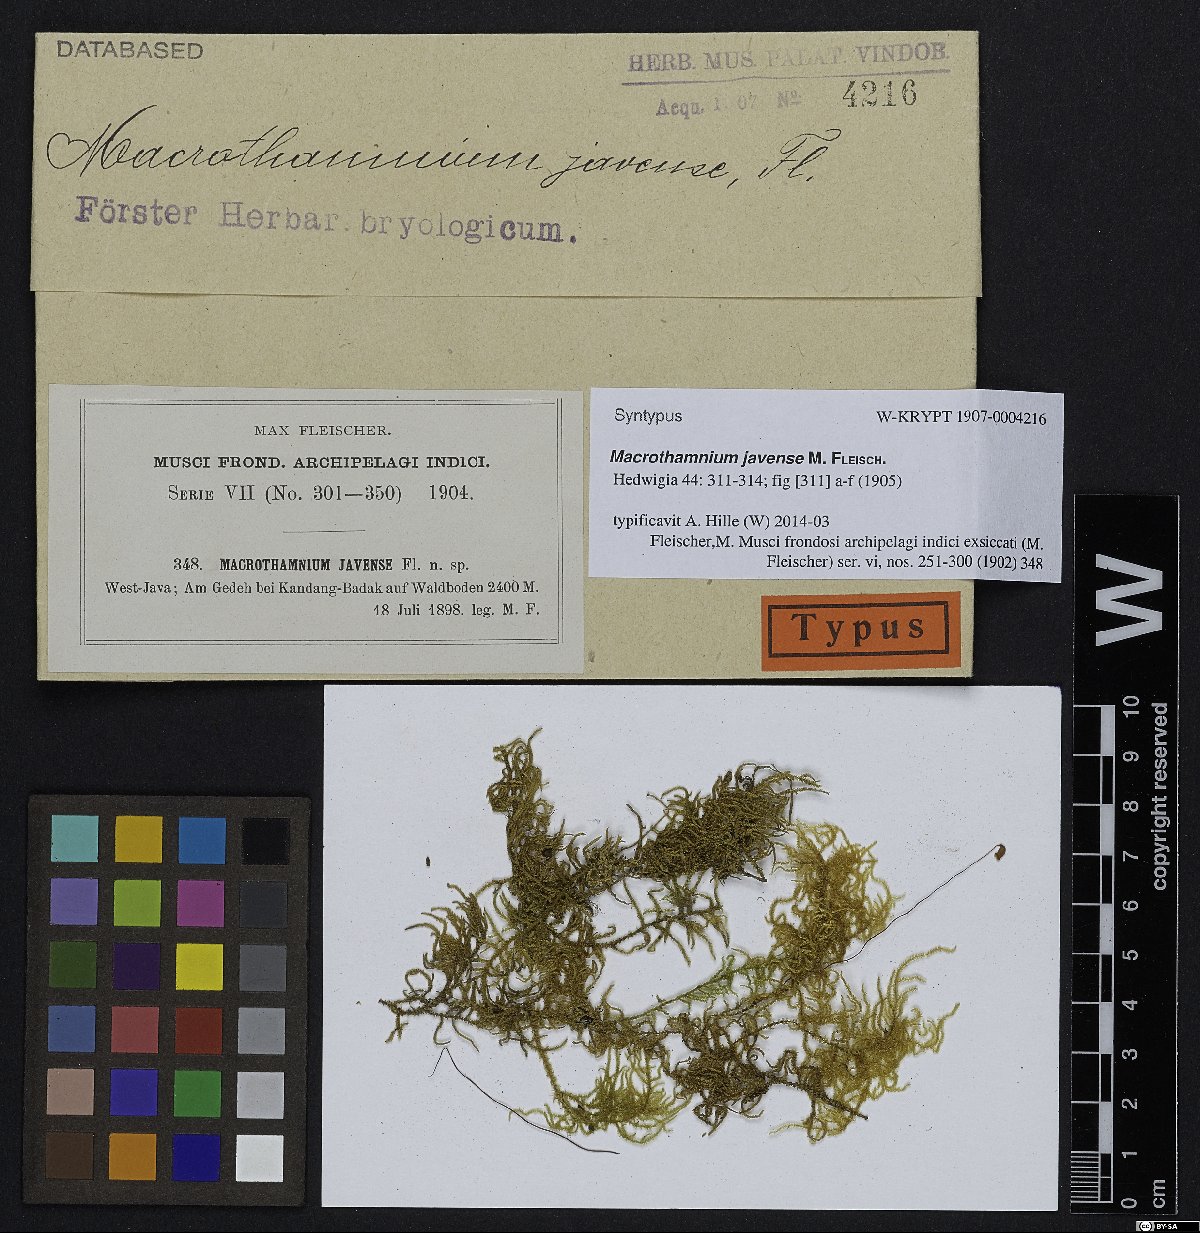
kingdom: Plantae
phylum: Bryophyta
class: Bryopsida
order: Hypnales
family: Hylocomiaceae
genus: Macrothamnium
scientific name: Macrothamnium javense
